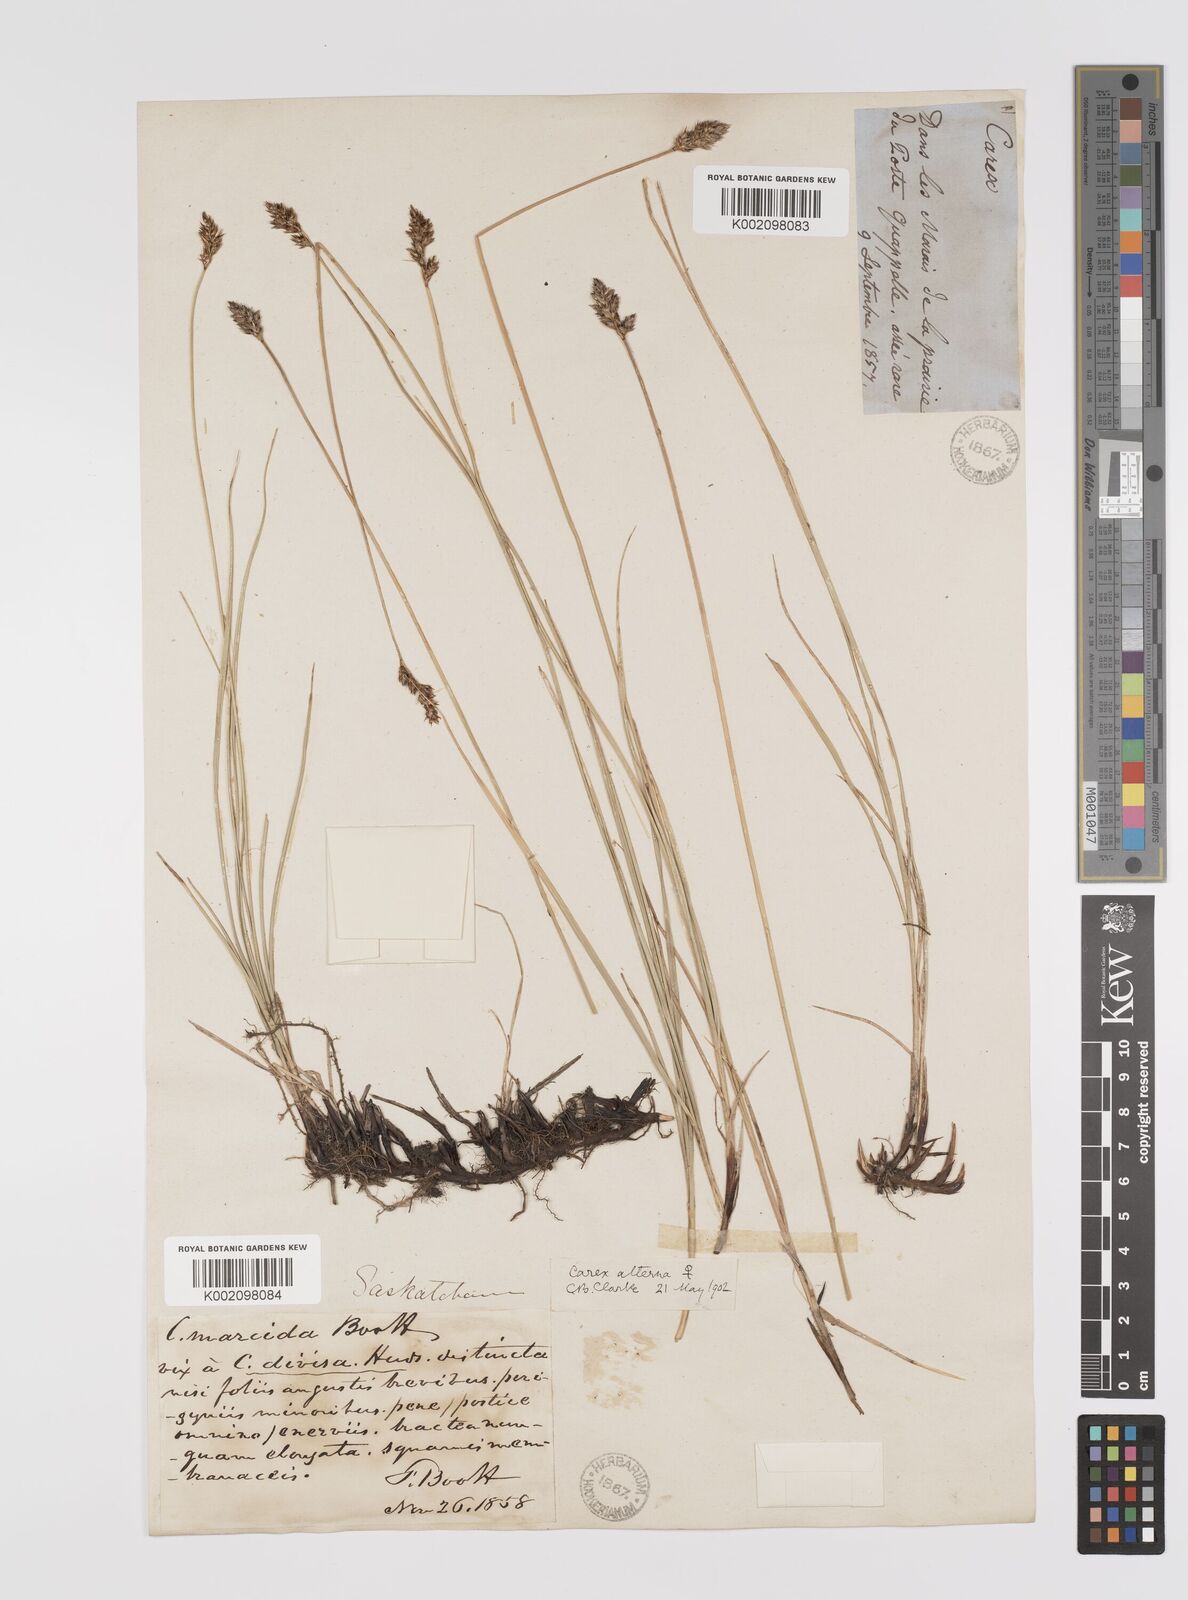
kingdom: Plantae
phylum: Tracheophyta
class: Liliopsida
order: Poales
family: Cyperaceae
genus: Carex
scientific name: Carex praegracilis
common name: Black creeper sedge
